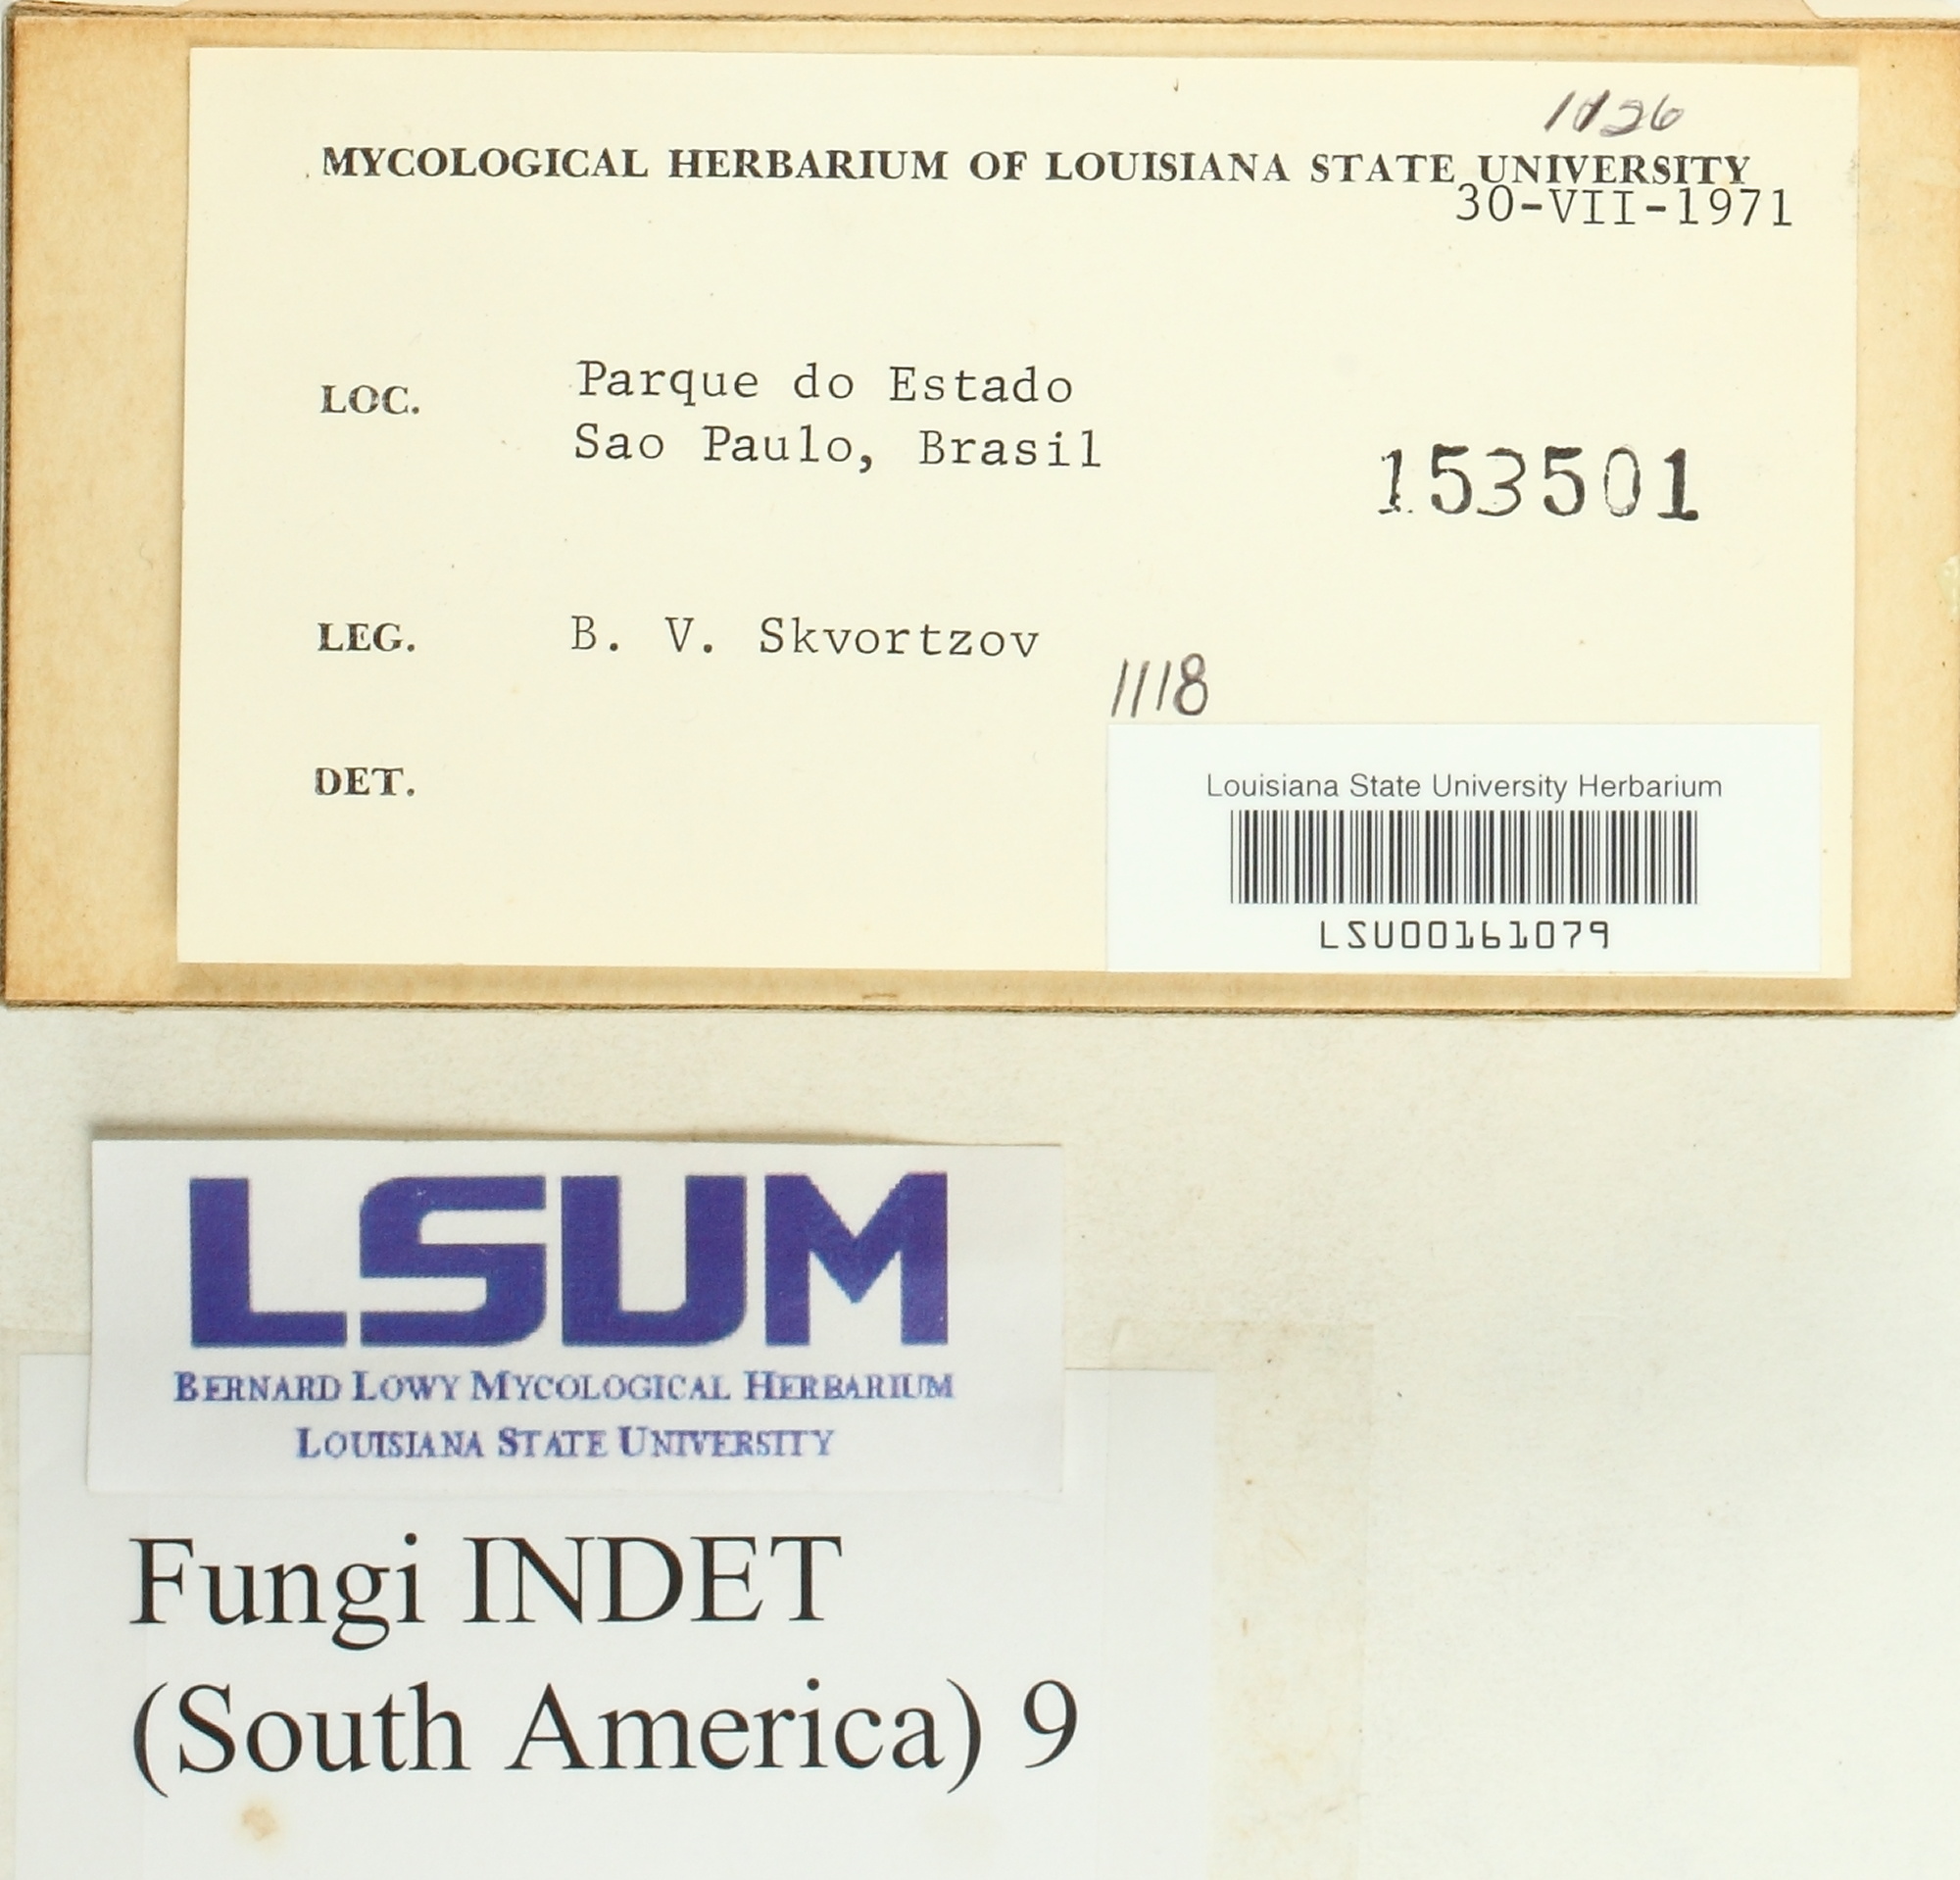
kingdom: Fungi
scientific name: Fungi
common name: Fungi
